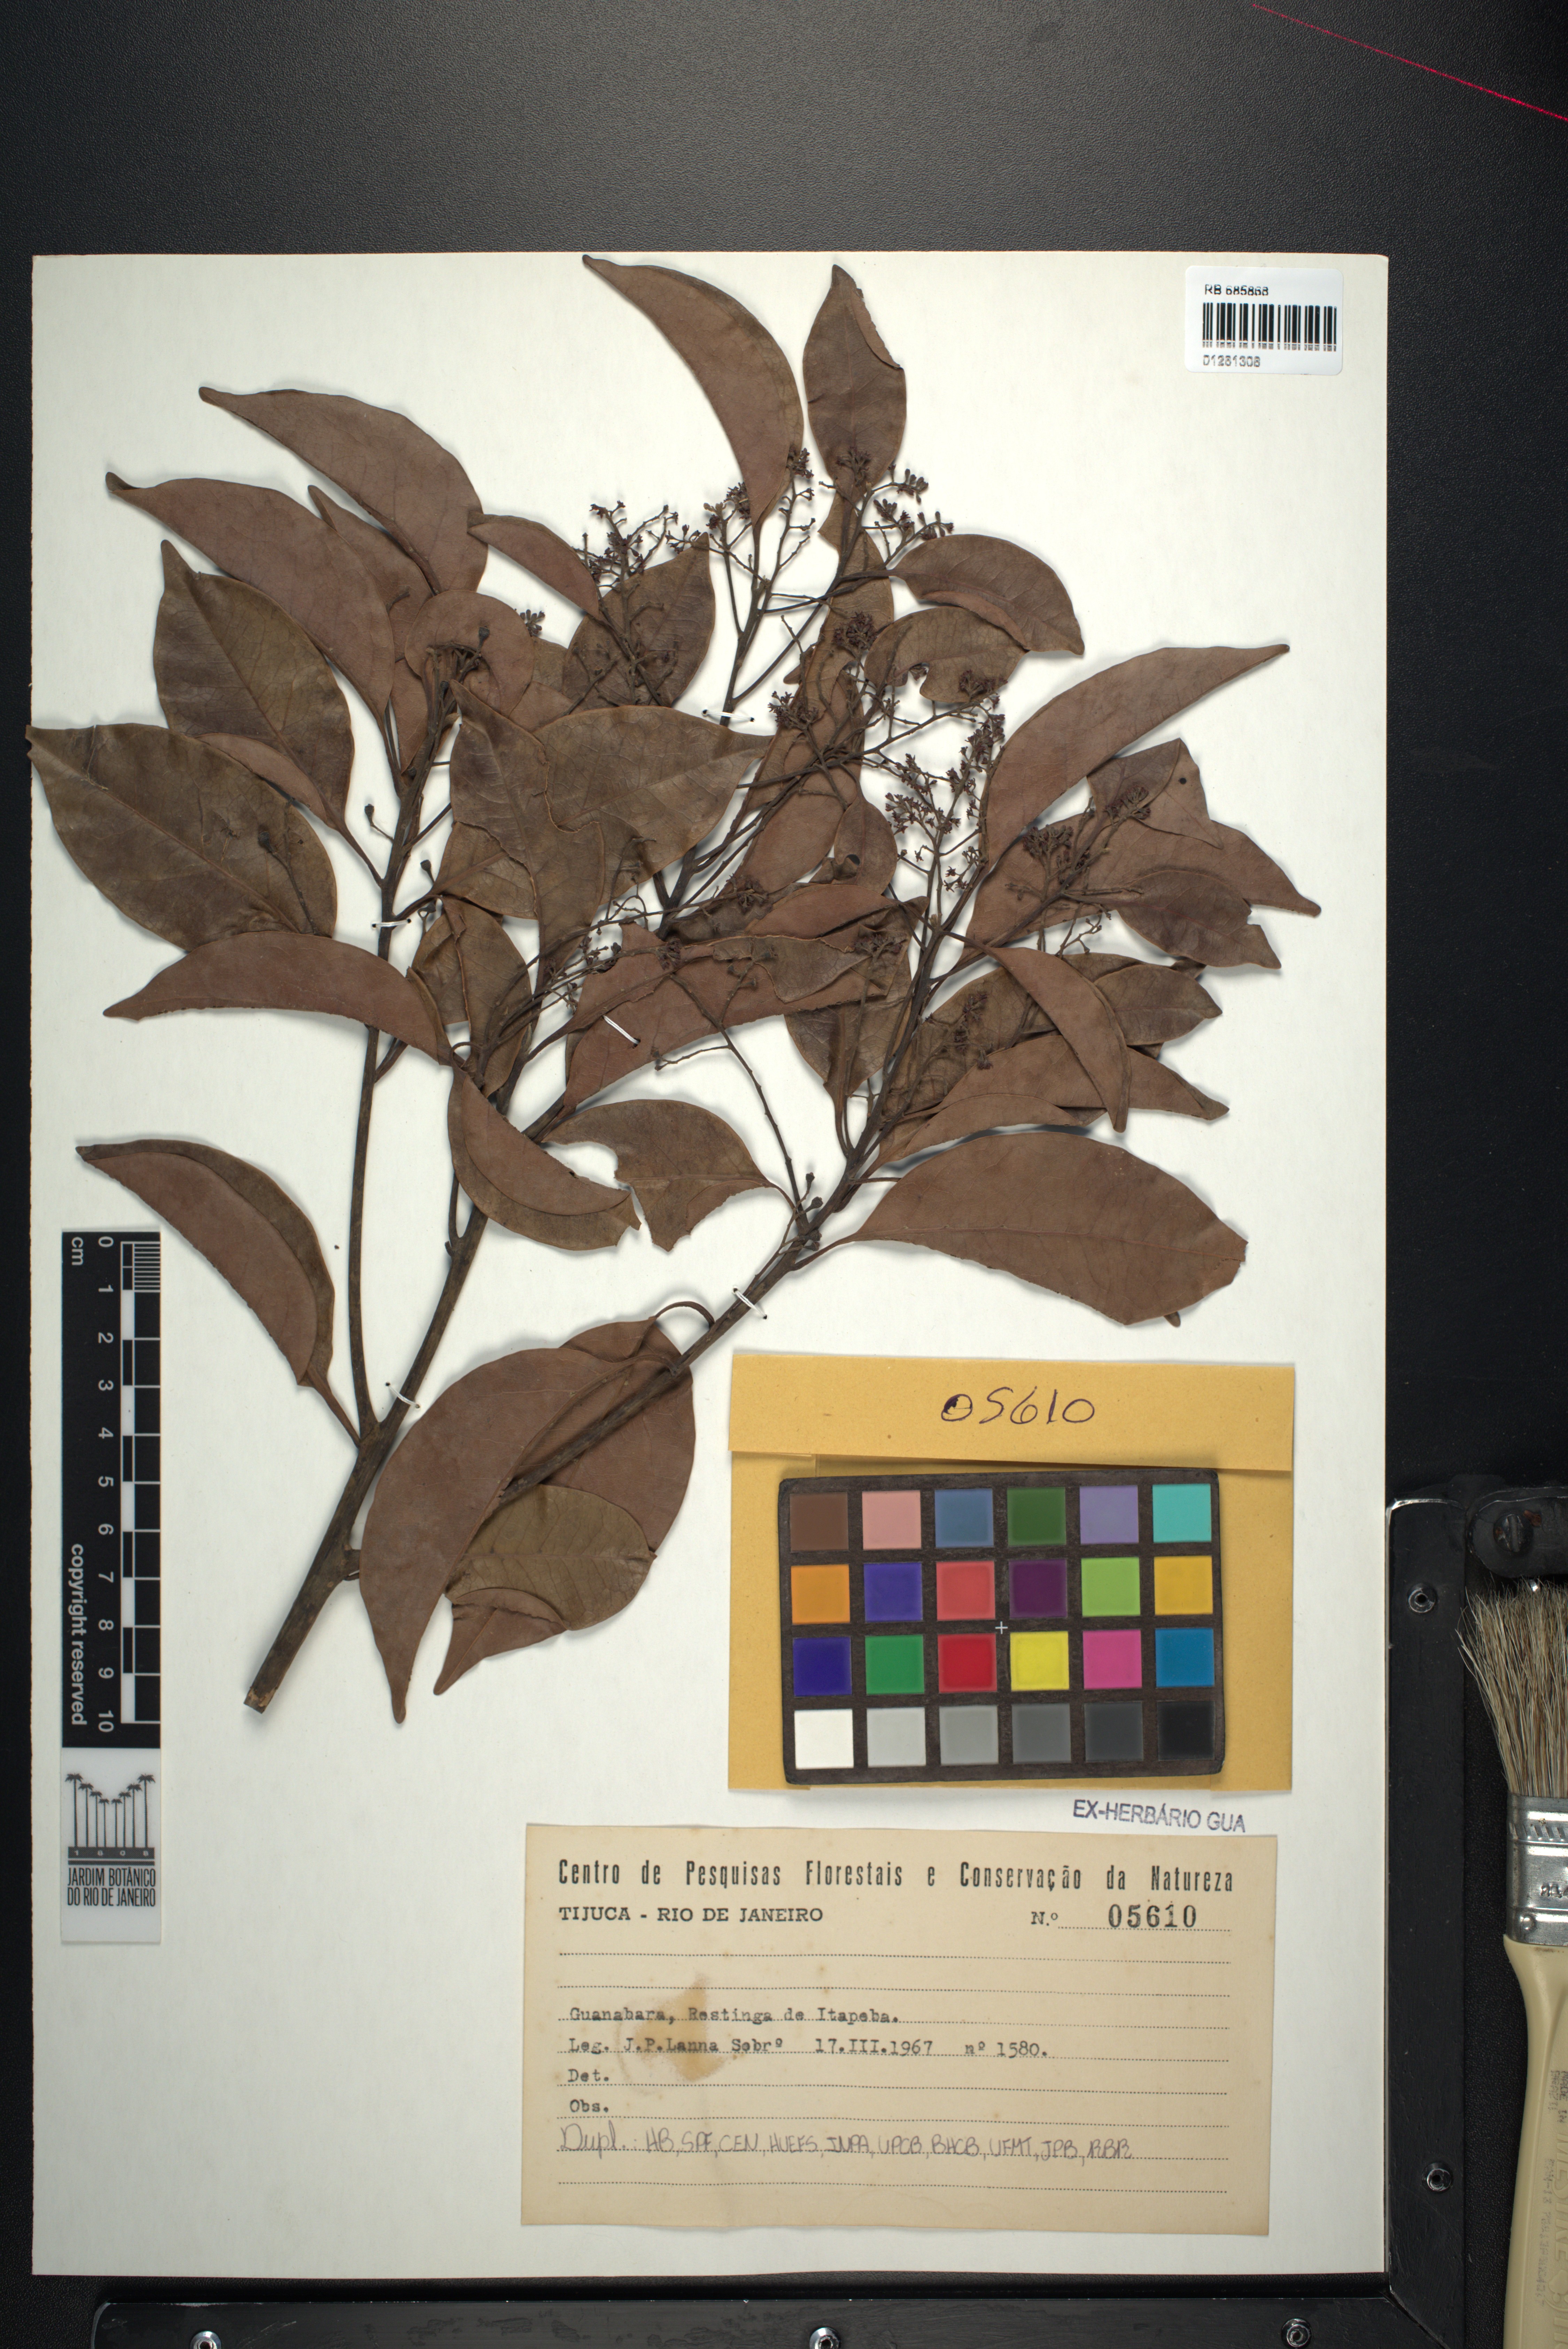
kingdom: Plantae
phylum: Tracheophyta
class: Magnoliopsida
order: Canellales
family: Winteraceae
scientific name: Winteraceae
